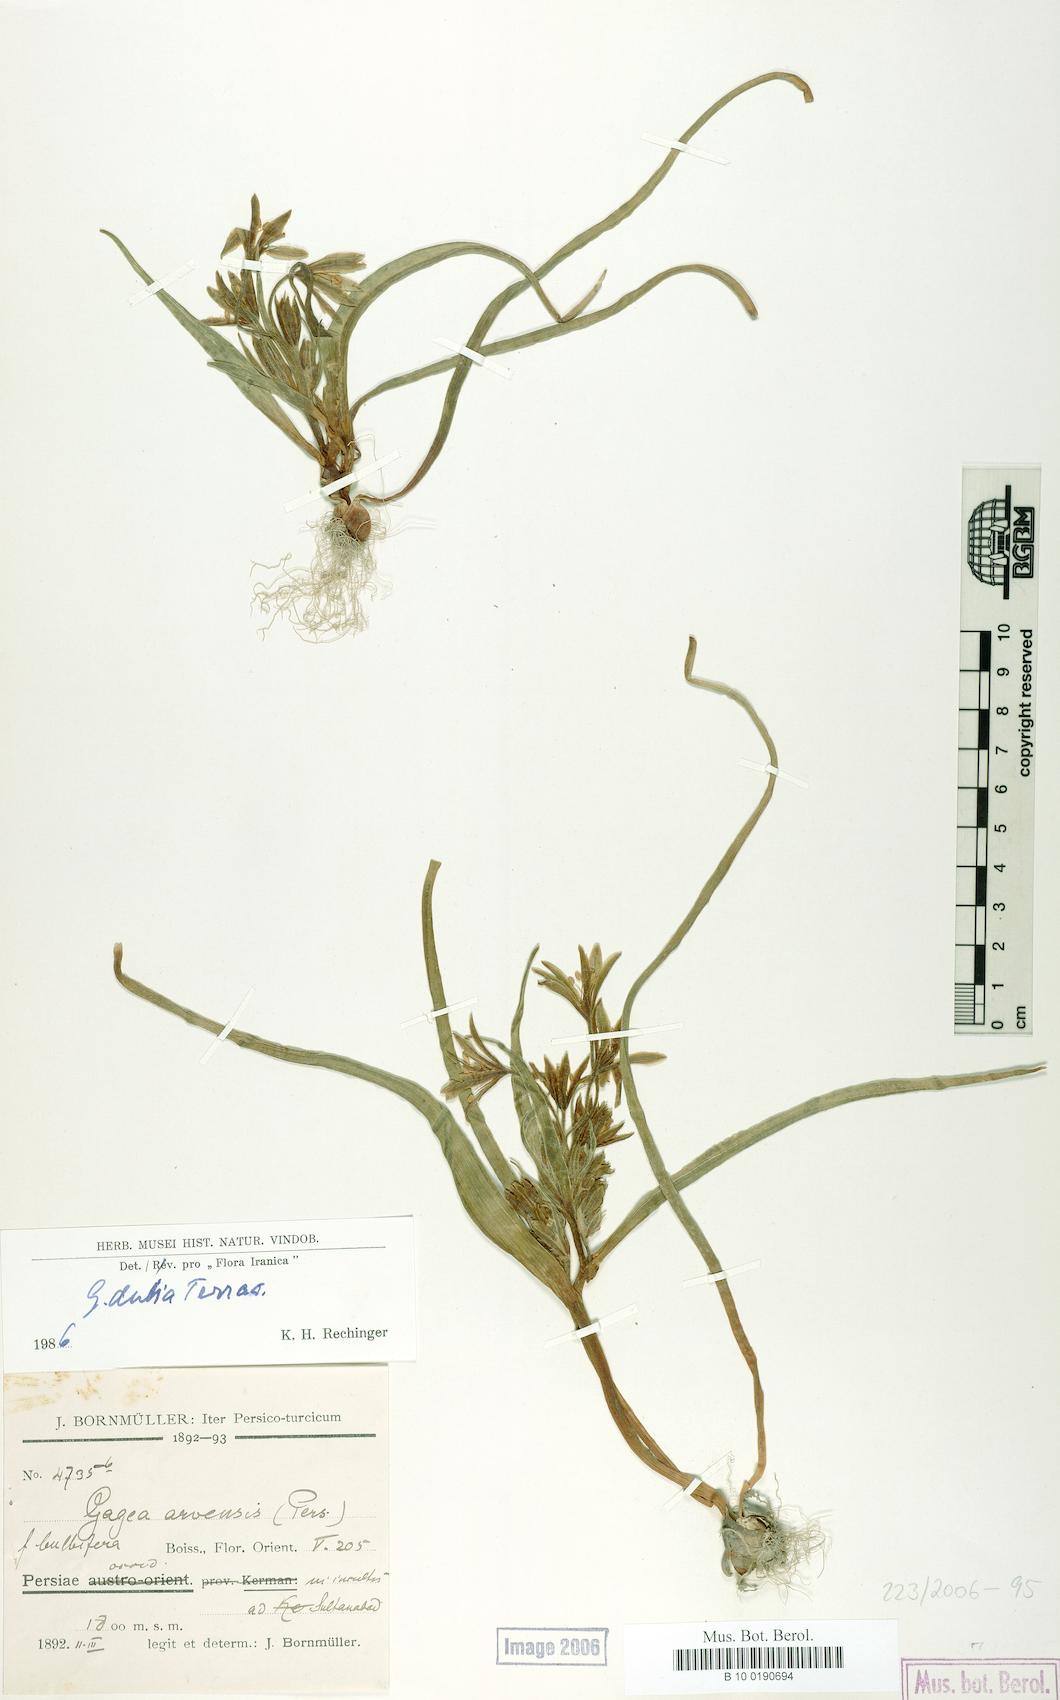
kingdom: Plantae
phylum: Tracheophyta
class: Liliopsida
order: Liliales
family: Liliaceae
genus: Gagea
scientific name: Gagea dubia
